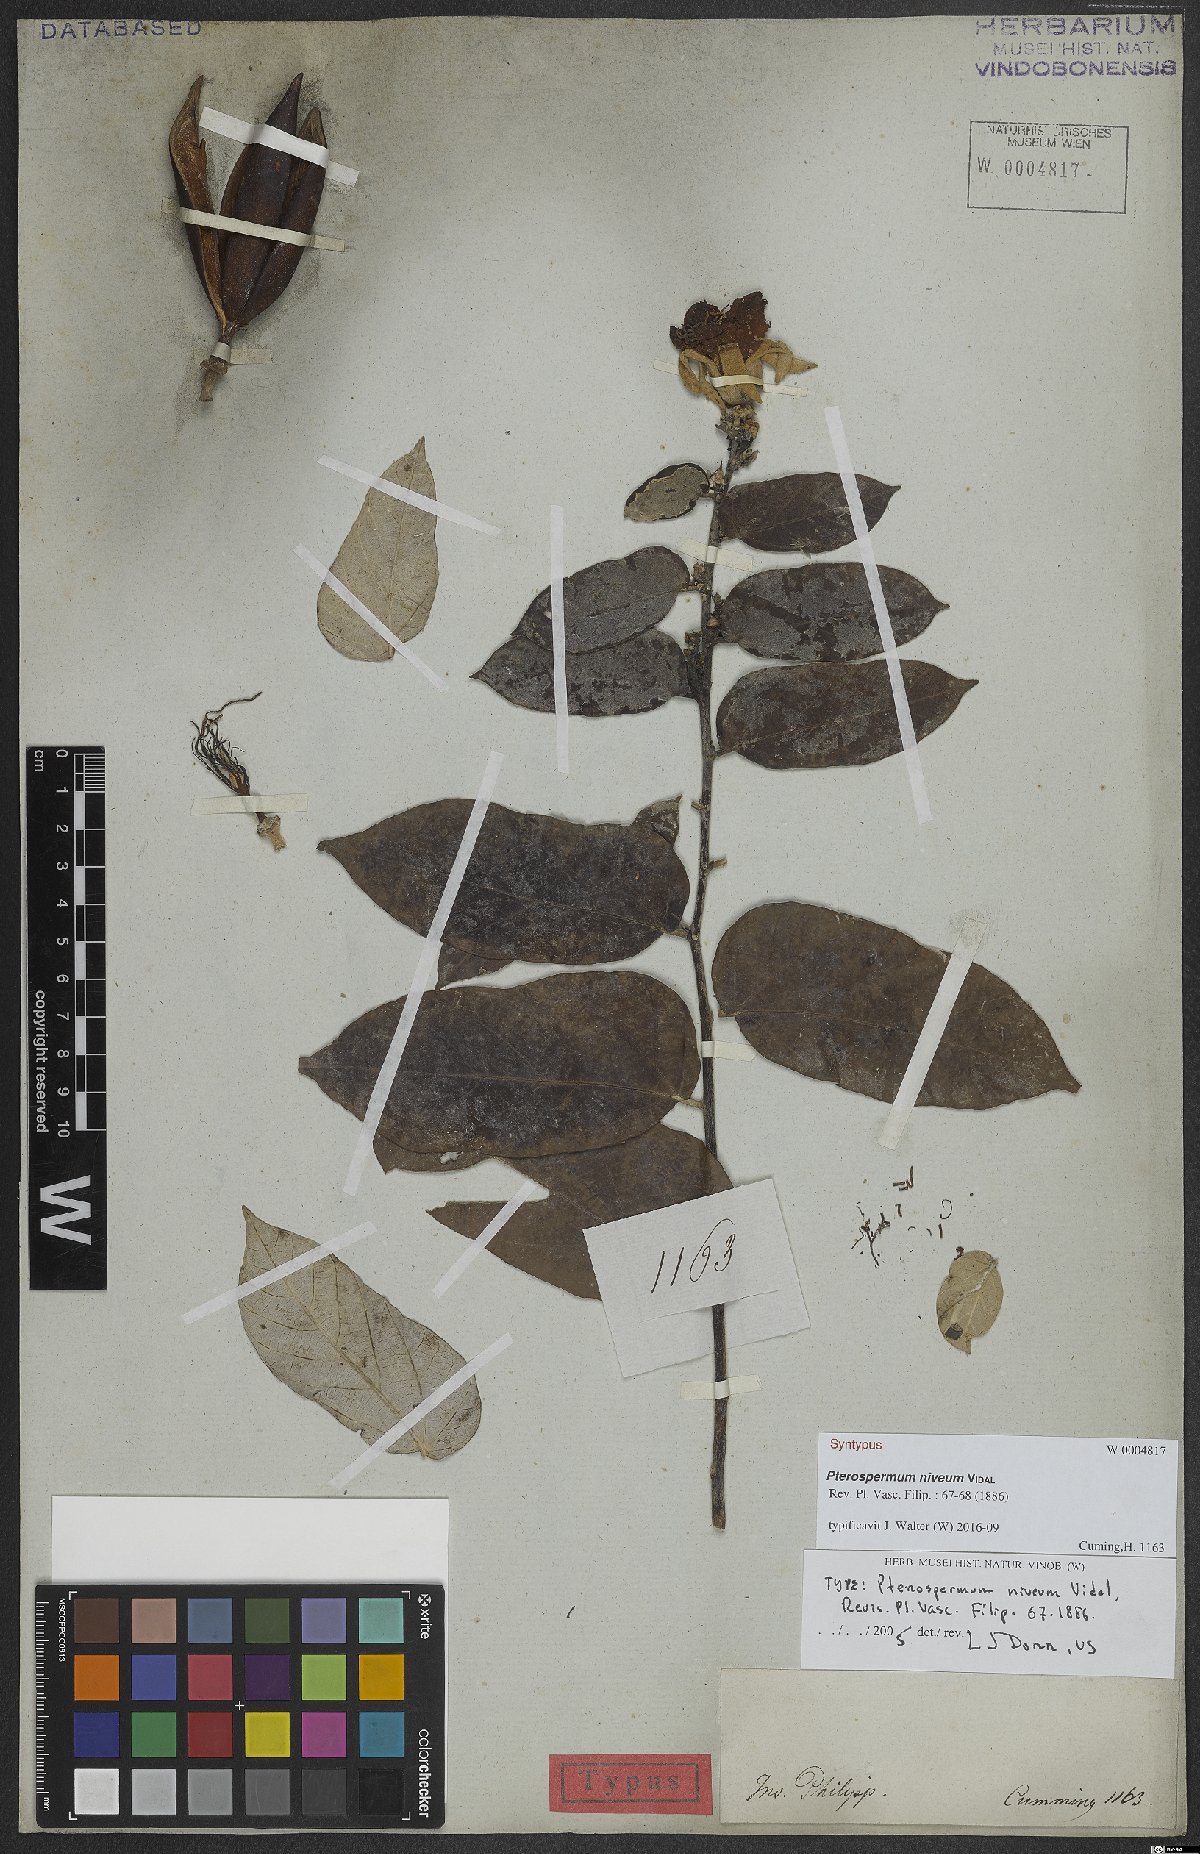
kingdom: Plantae
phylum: Tracheophyta
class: Magnoliopsida
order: Malvales
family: Malvaceae
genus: Pterospermum
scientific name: Pterospermum niveum
